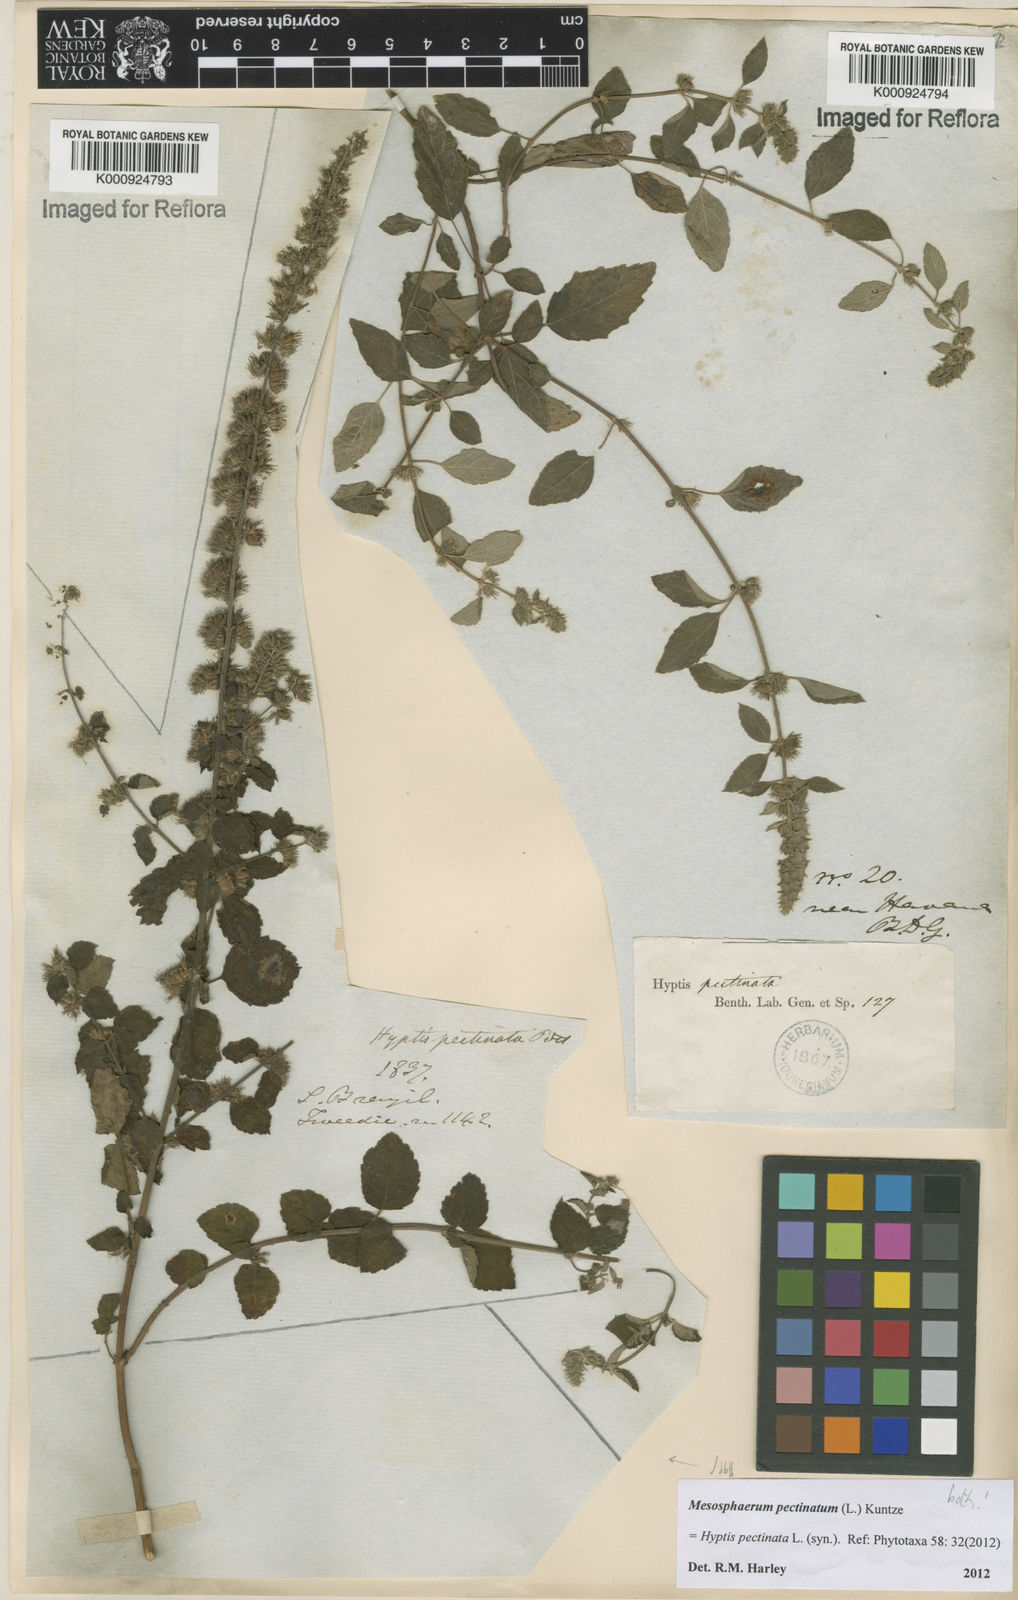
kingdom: Plantae
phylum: Tracheophyta
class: Magnoliopsida
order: Lamiales
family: Lamiaceae
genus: Mesosphaerum
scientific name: Mesosphaerum pectinatum
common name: Comb hyptis
